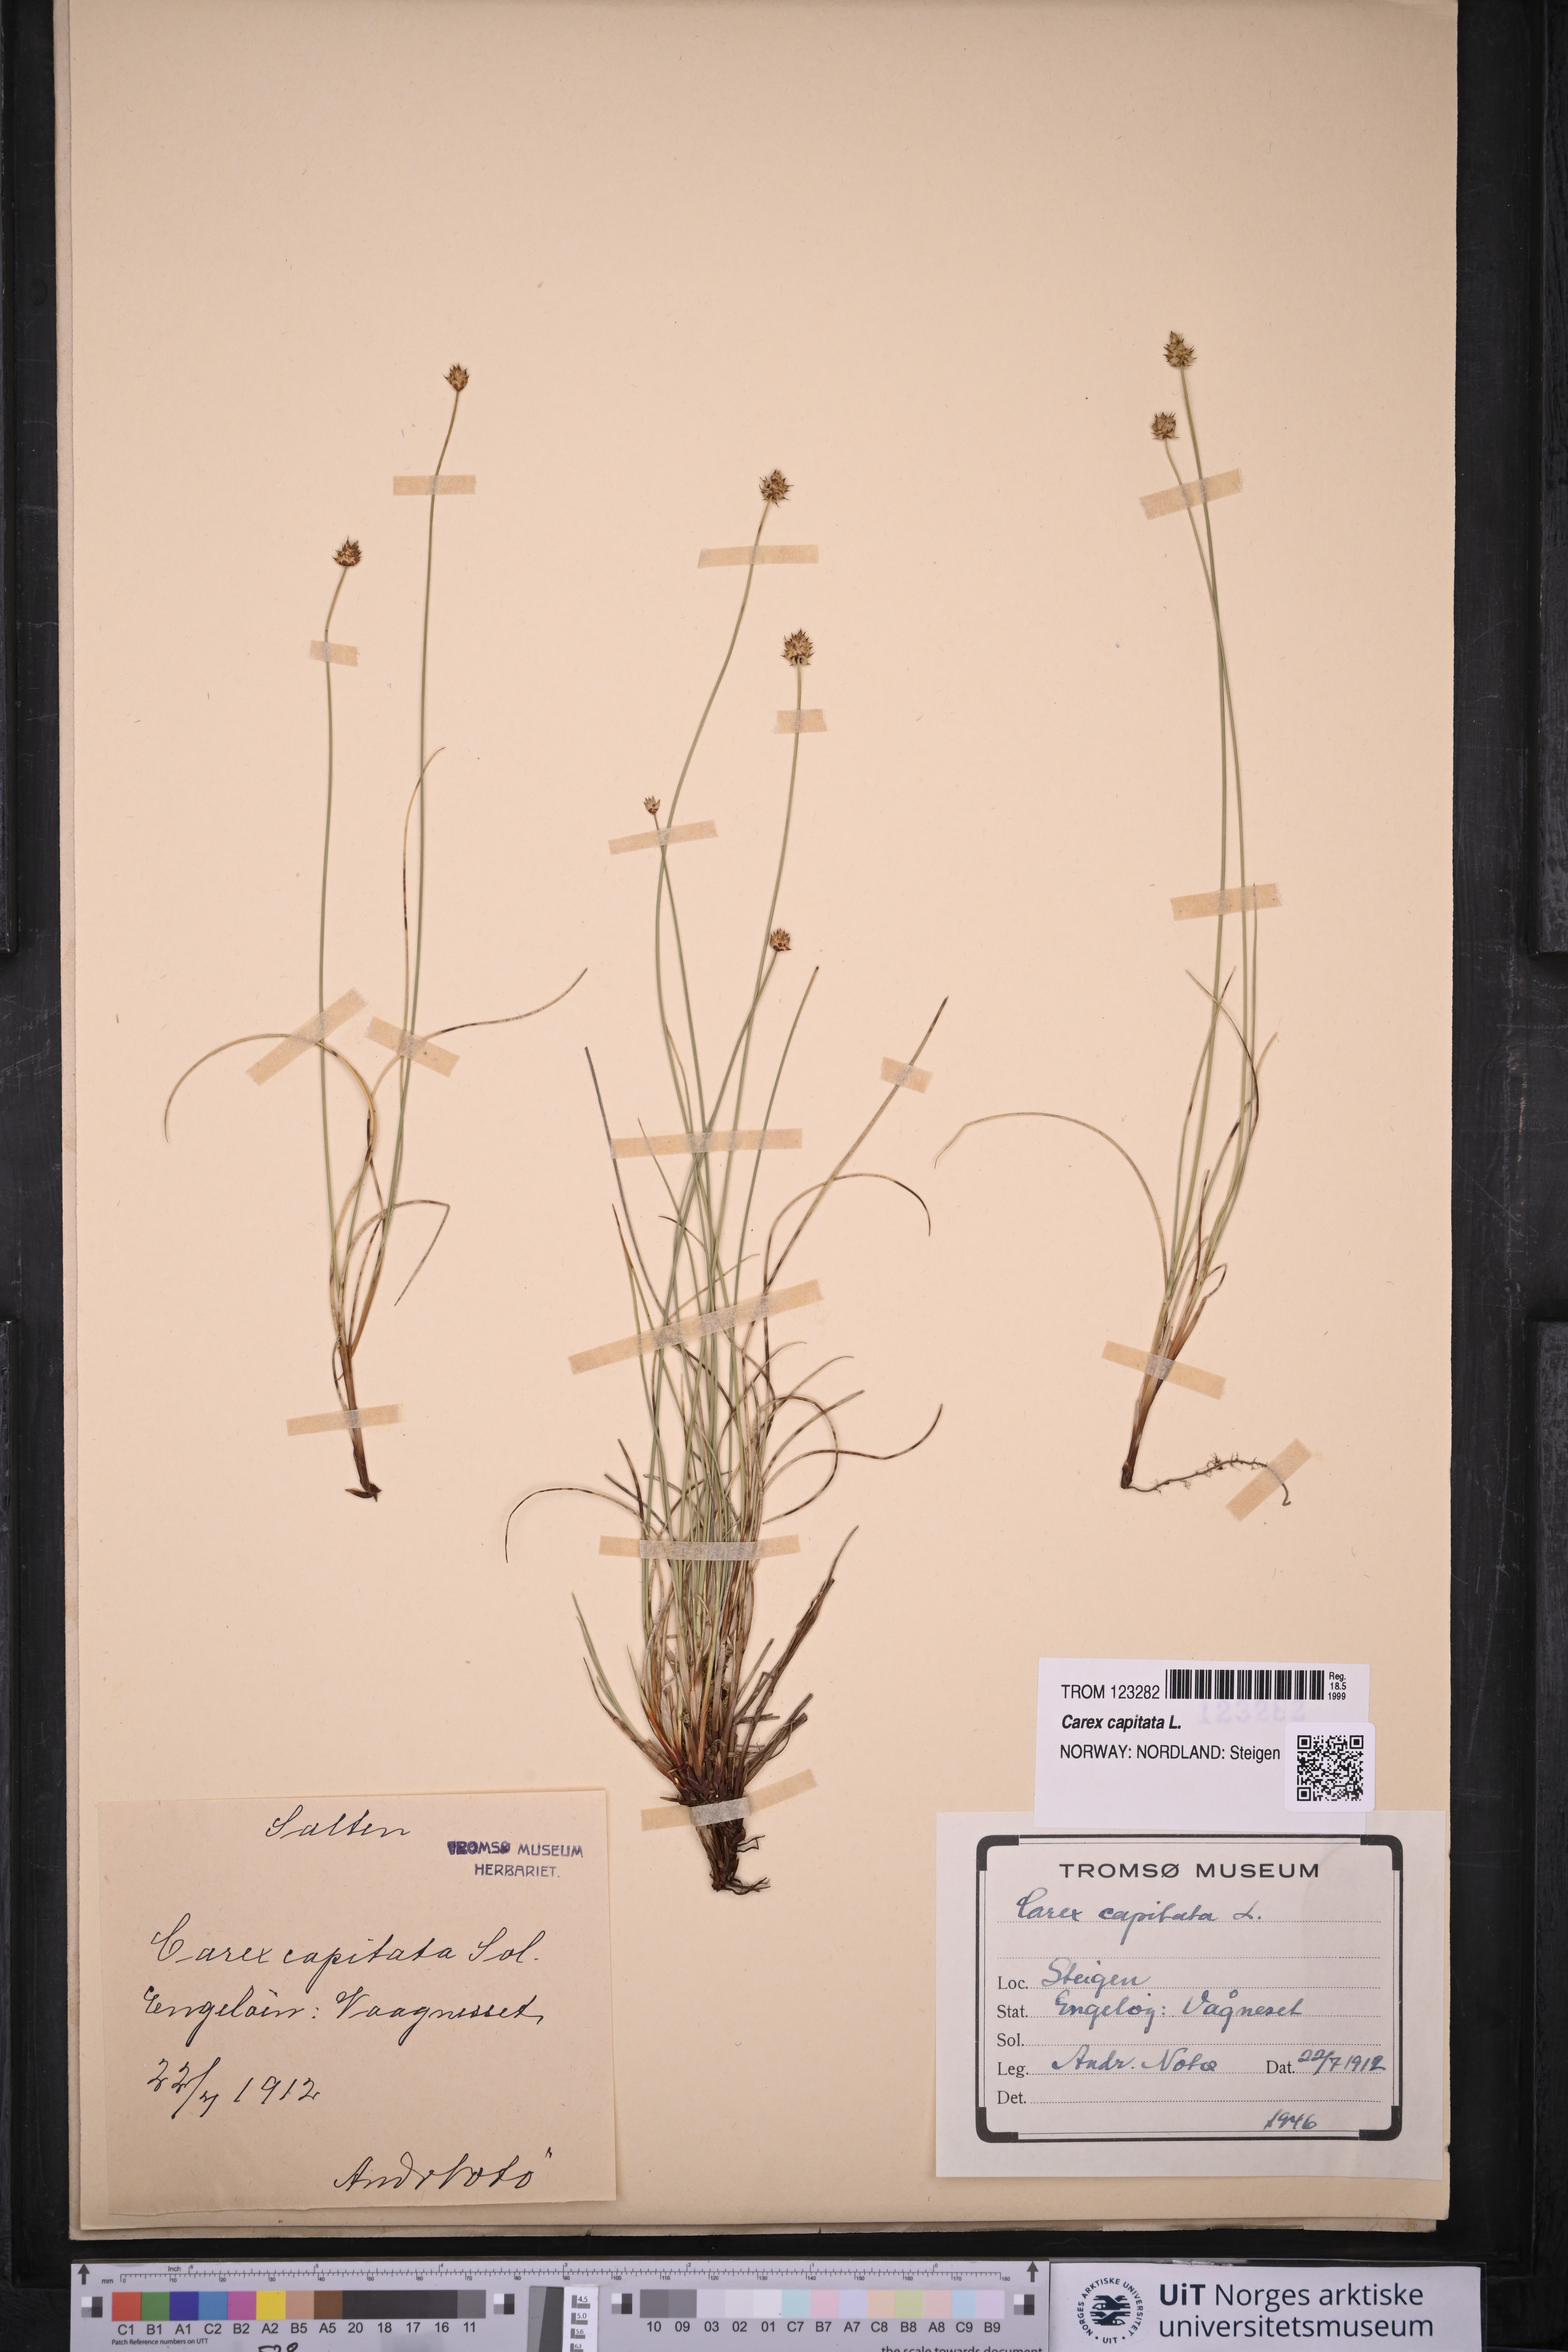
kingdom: Plantae
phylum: Tracheophyta
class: Liliopsida
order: Poales
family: Cyperaceae
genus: Carex
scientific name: Carex capitata
